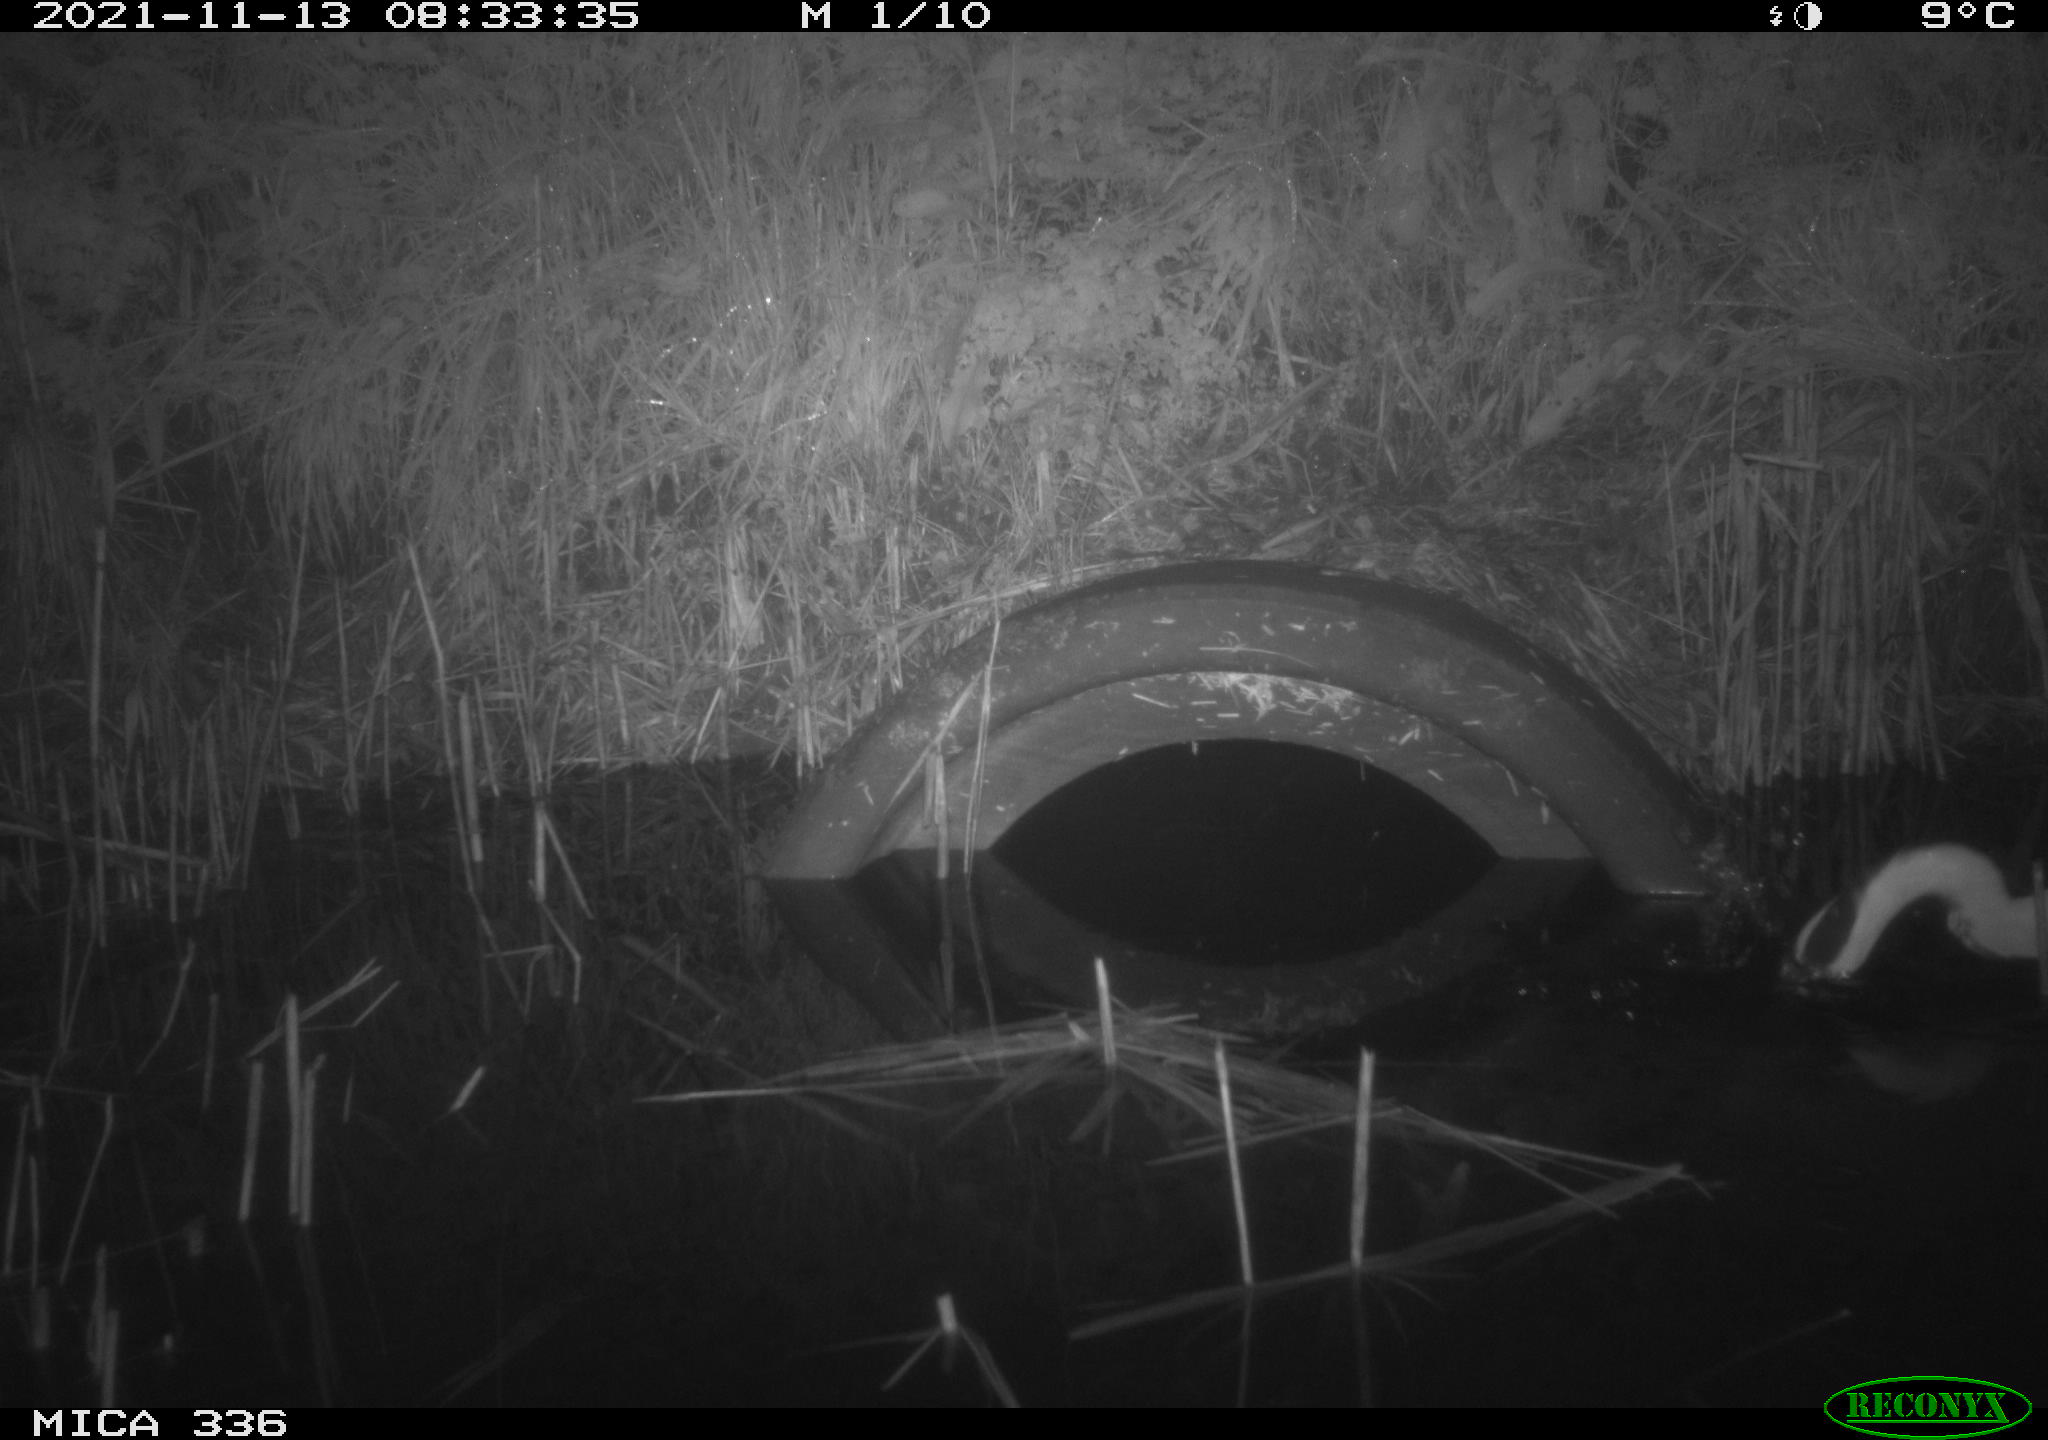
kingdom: Animalia
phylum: Chordata
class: Aves
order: Pelecaniformes
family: Ardeidae
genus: Ardea
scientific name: Ardea cinerea
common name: Grey heron
